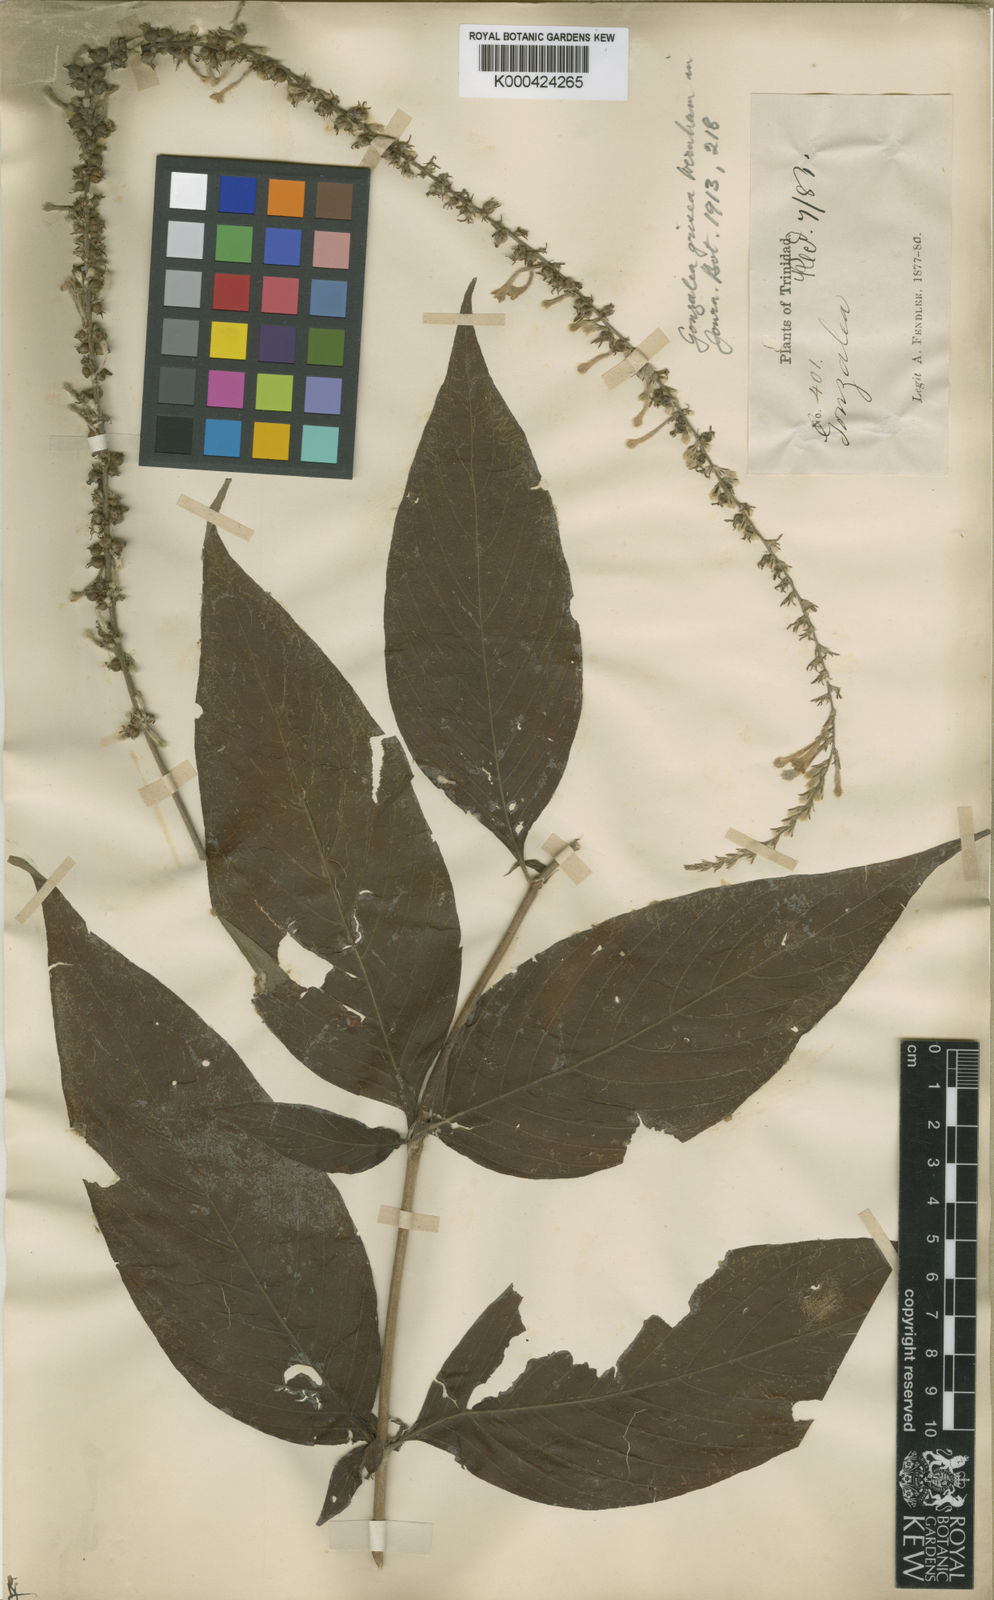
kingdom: Plantae
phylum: Tracheophyta
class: Magnoliopsida
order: Gentianales
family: Rubiaceae
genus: Gonzalagunia
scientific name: Gonzalagunia
